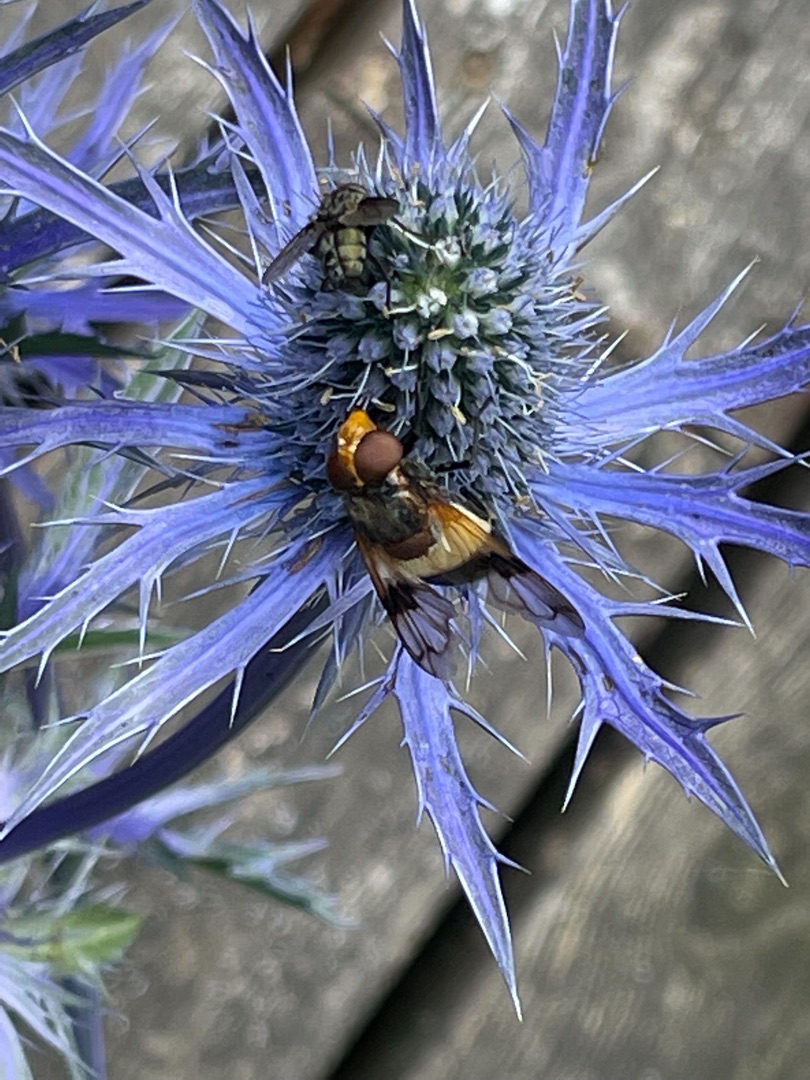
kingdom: Animalia
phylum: Arthropoda
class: Insecta
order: Diptera
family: Syrphidae
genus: Volucella
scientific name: Volucella pellucens
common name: Hvidbåndet humlesvirreflue
